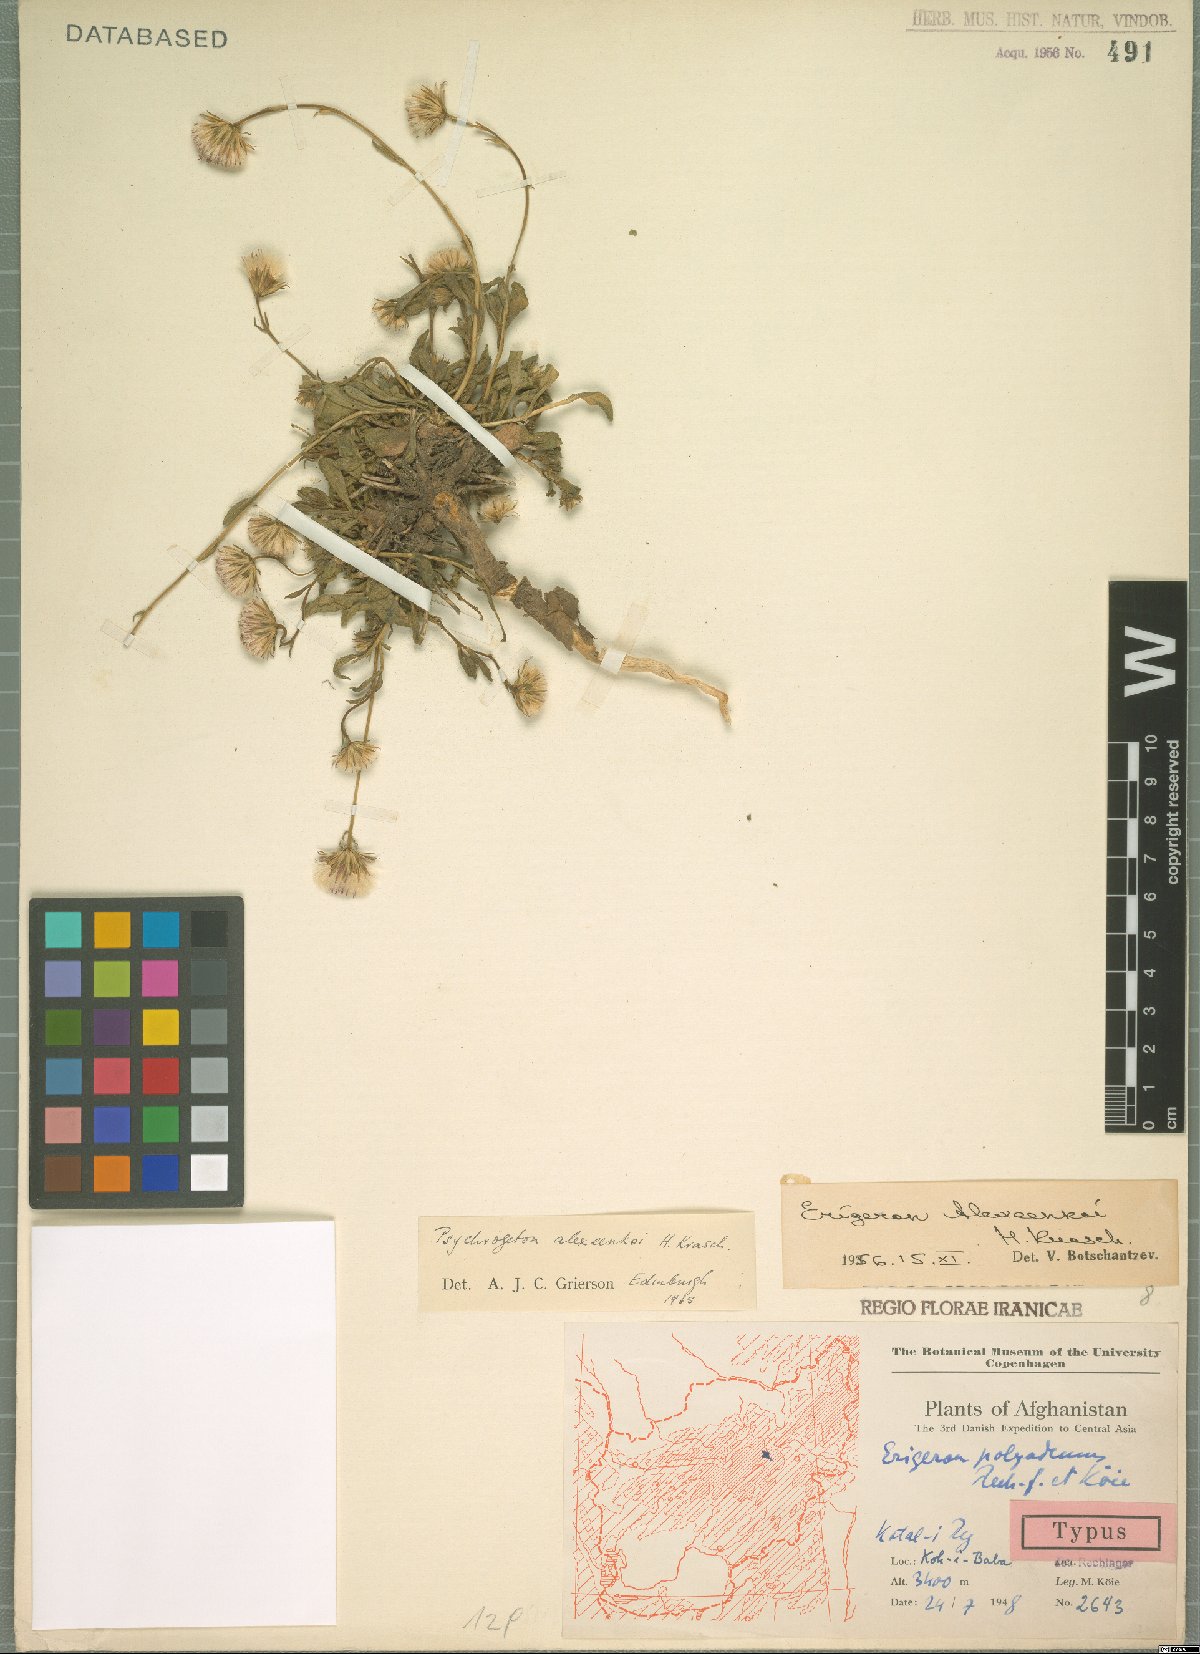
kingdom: Plantae
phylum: Tracheophyta
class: Magnoliopsida
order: Asterales
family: Asteraceae
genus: Psychrogeton
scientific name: Psychrogeton alexeenkoi
